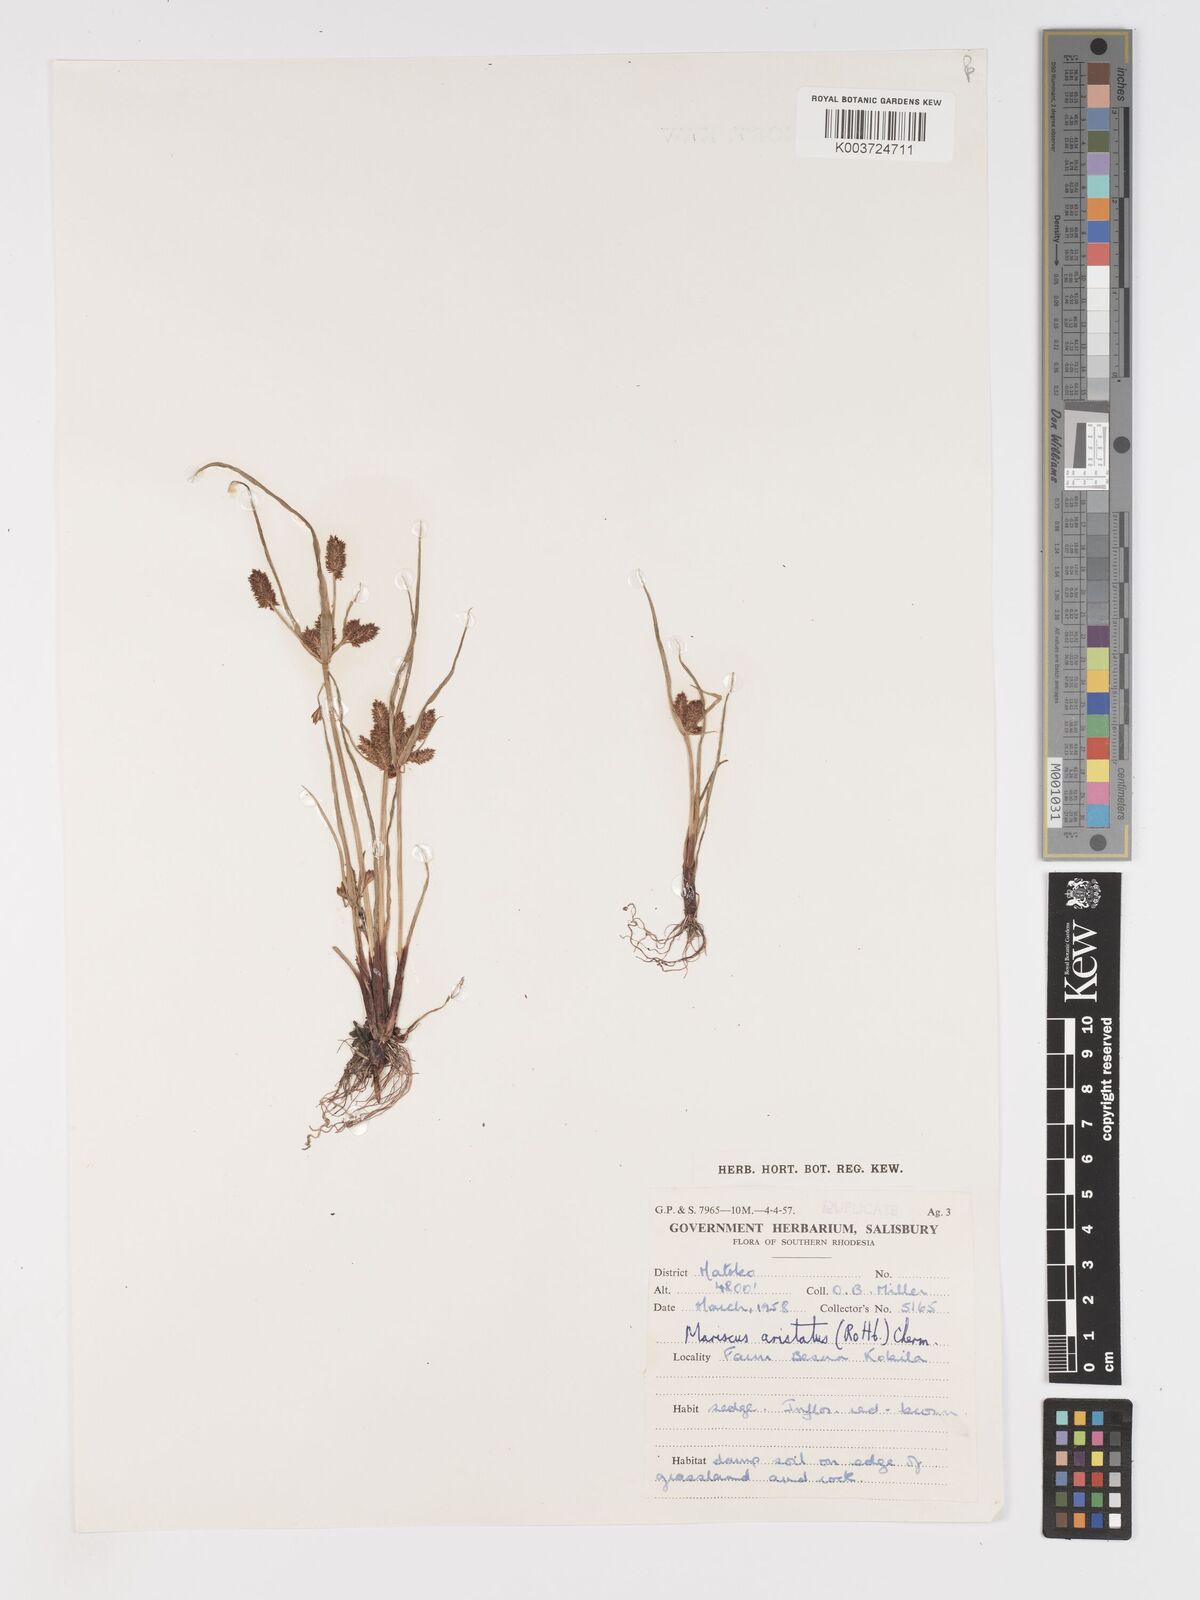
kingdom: Plantae
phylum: Tracheophyta
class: Liliopsida
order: Poales
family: Cyperaceae
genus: Cyperus
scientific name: Cyperus squarrosus
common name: Awned cyperus
